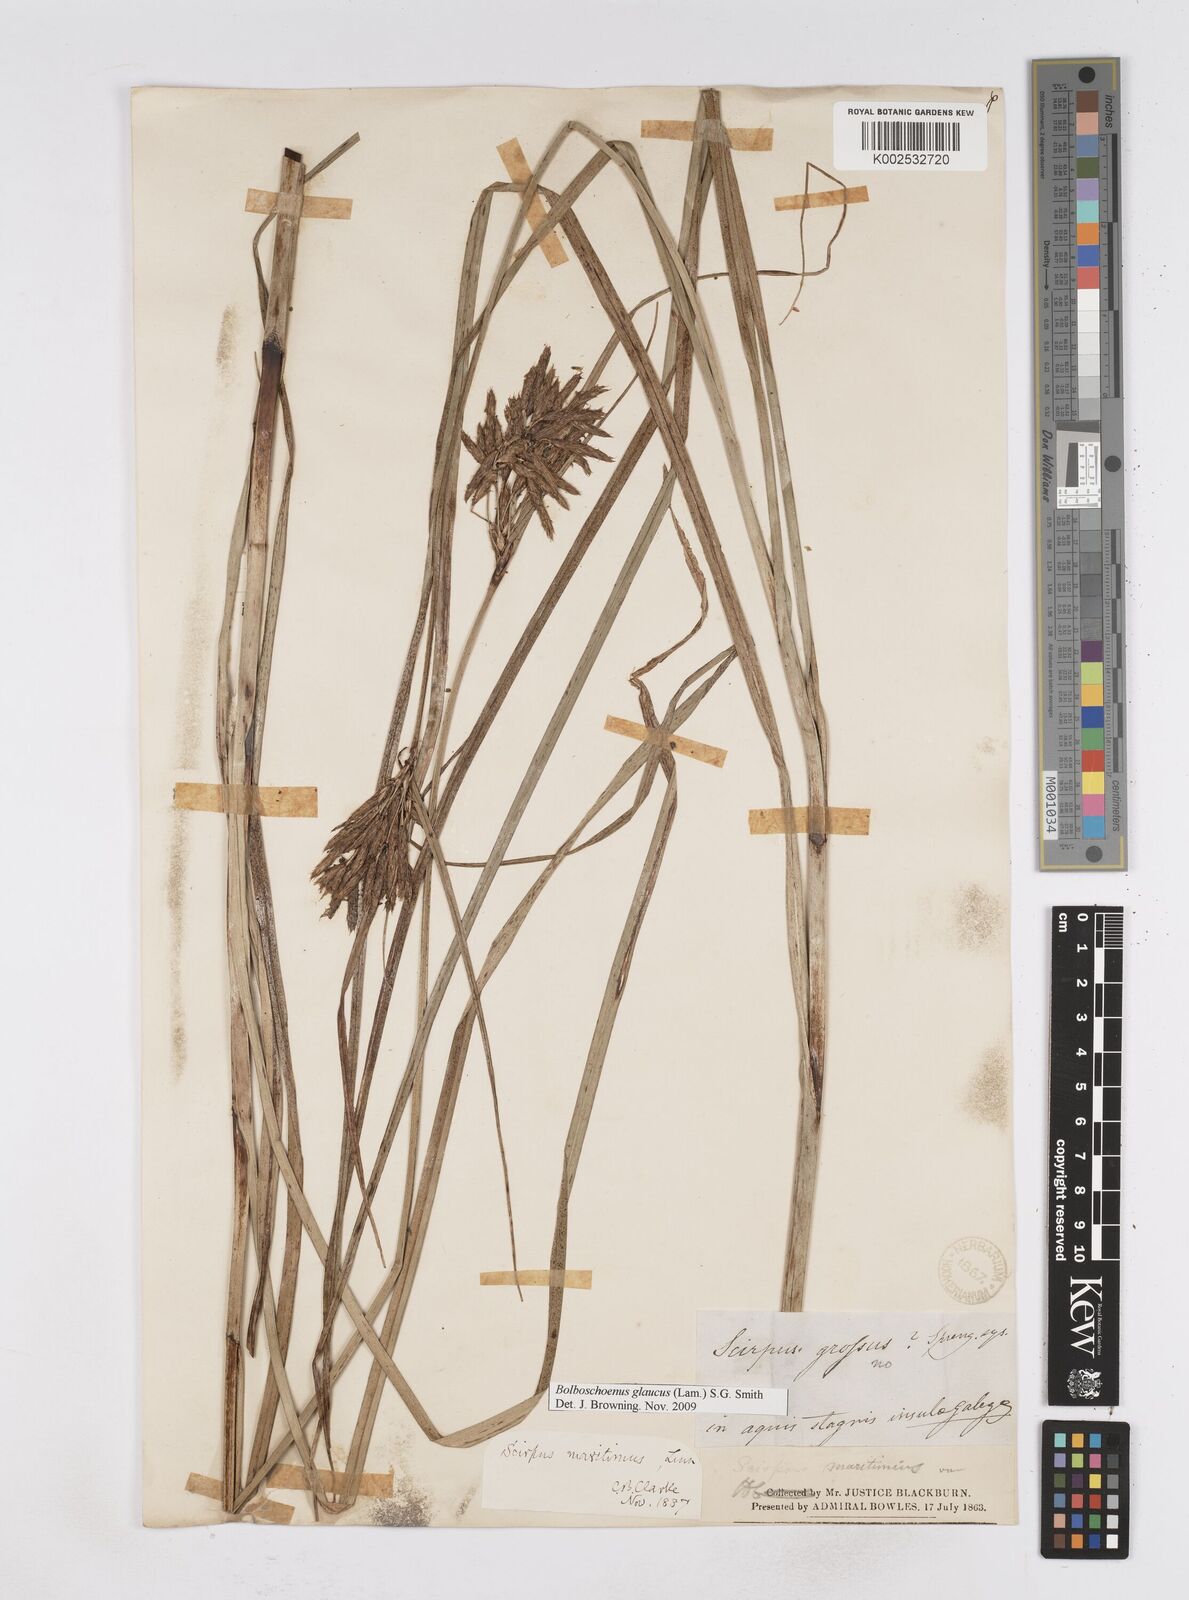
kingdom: Plantae
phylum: Tracheophyta
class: Liliopsida
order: Poales
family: Cyperaceae
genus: Bolboschoenus
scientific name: Bolboschoenus maritimus
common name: Sea club-rush
